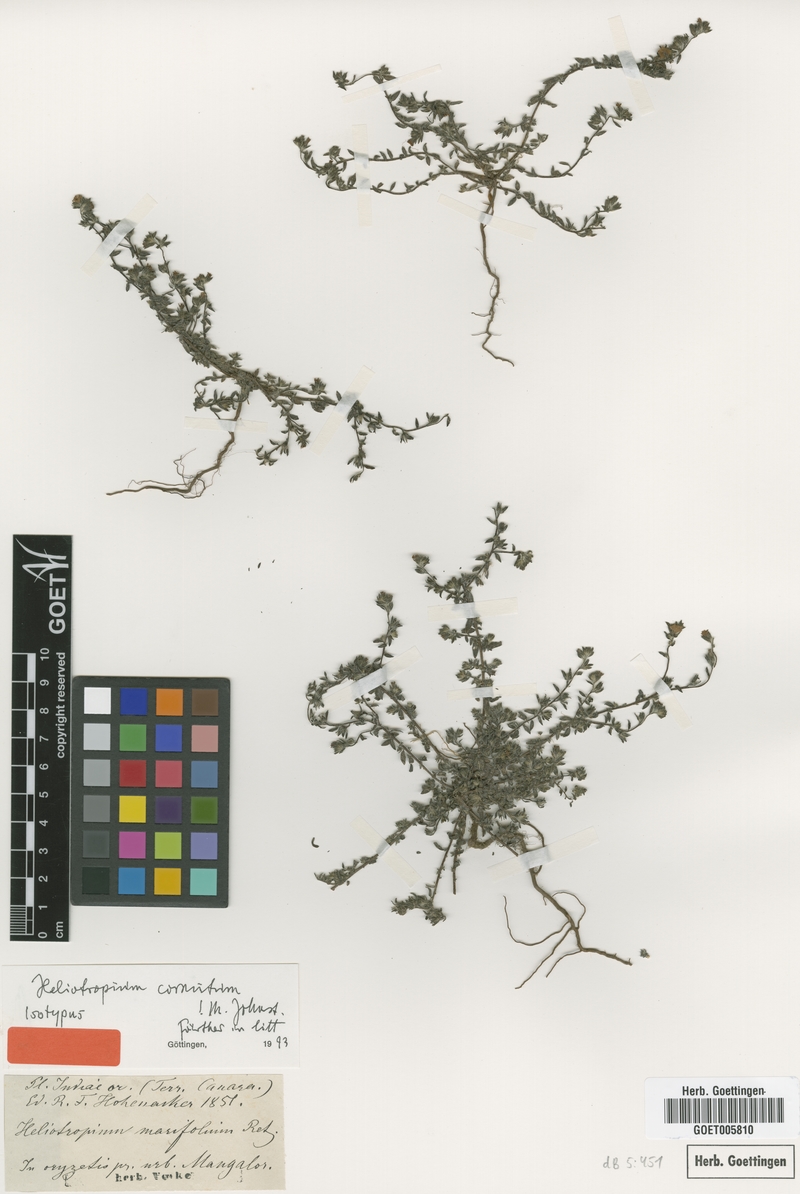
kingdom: Plantae
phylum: Tracheophyta
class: Magnoliopsida
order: Boraginales
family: Heliotropiaceae
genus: Euploca
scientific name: Euploca cornuta
